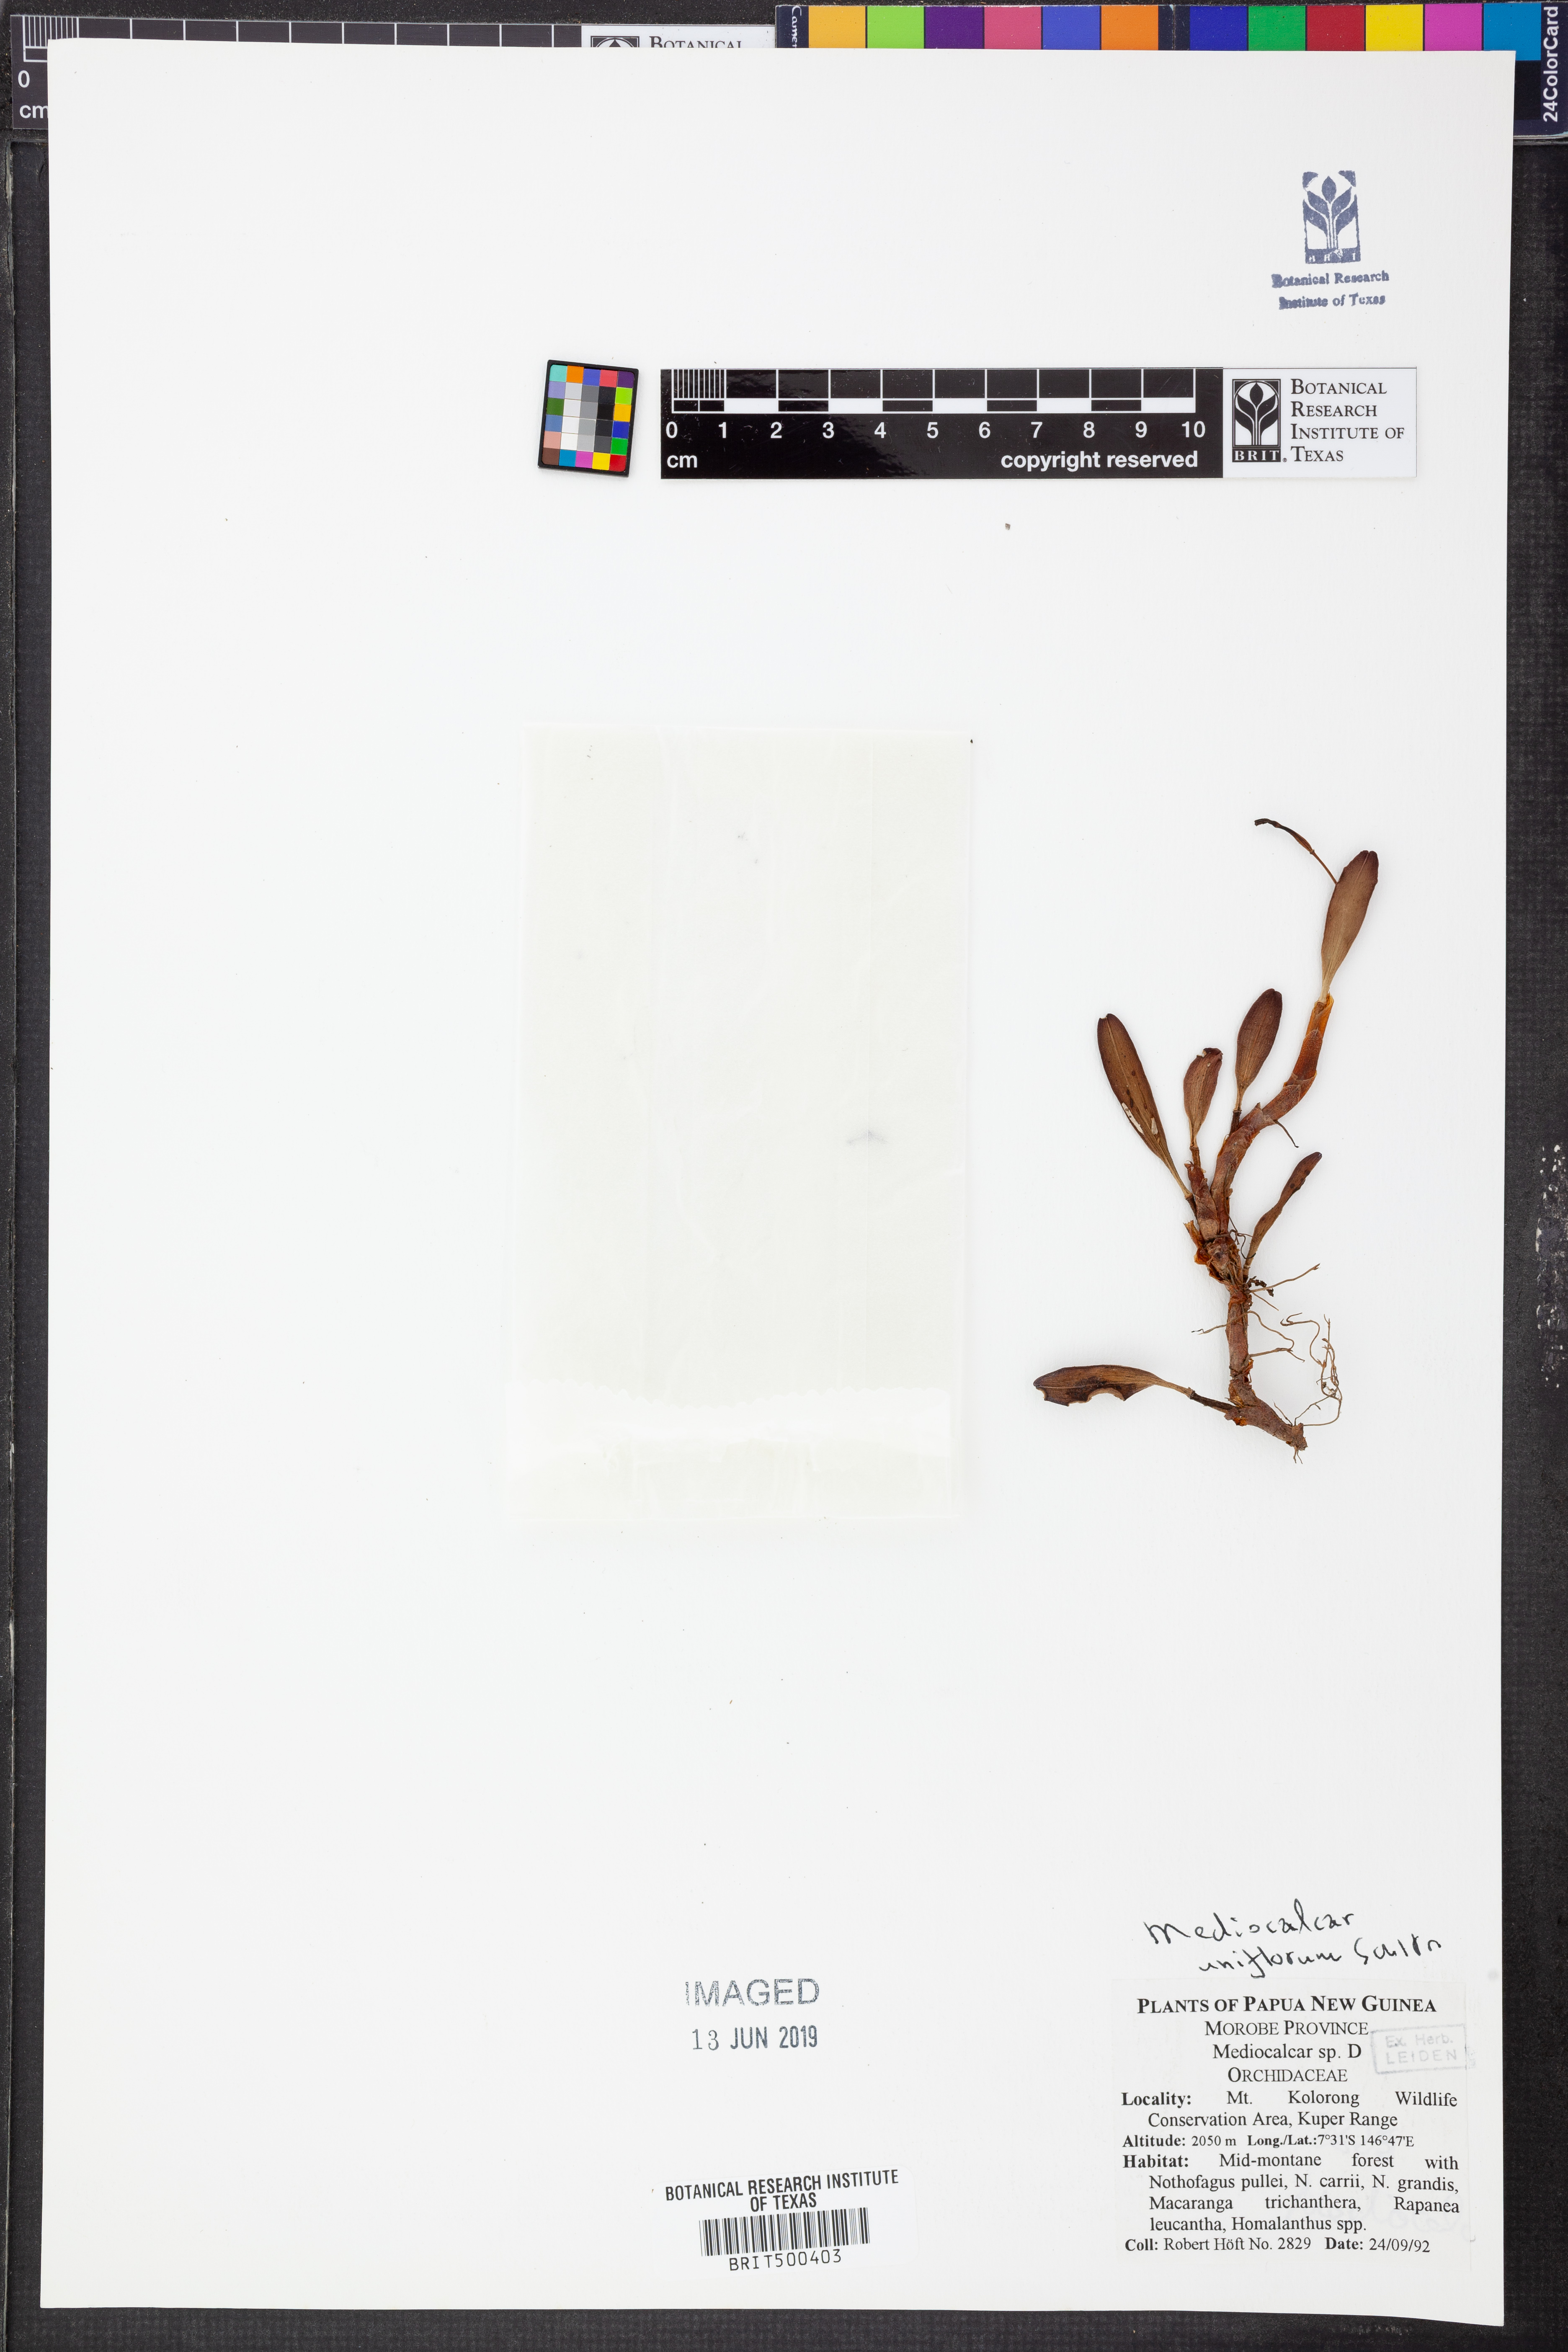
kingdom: Plantae
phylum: Tracheophyta
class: Liliopsida
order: Asparagales
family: Orchidaceae
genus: Mediocalcar
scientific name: Mediocalcar uniflorum
